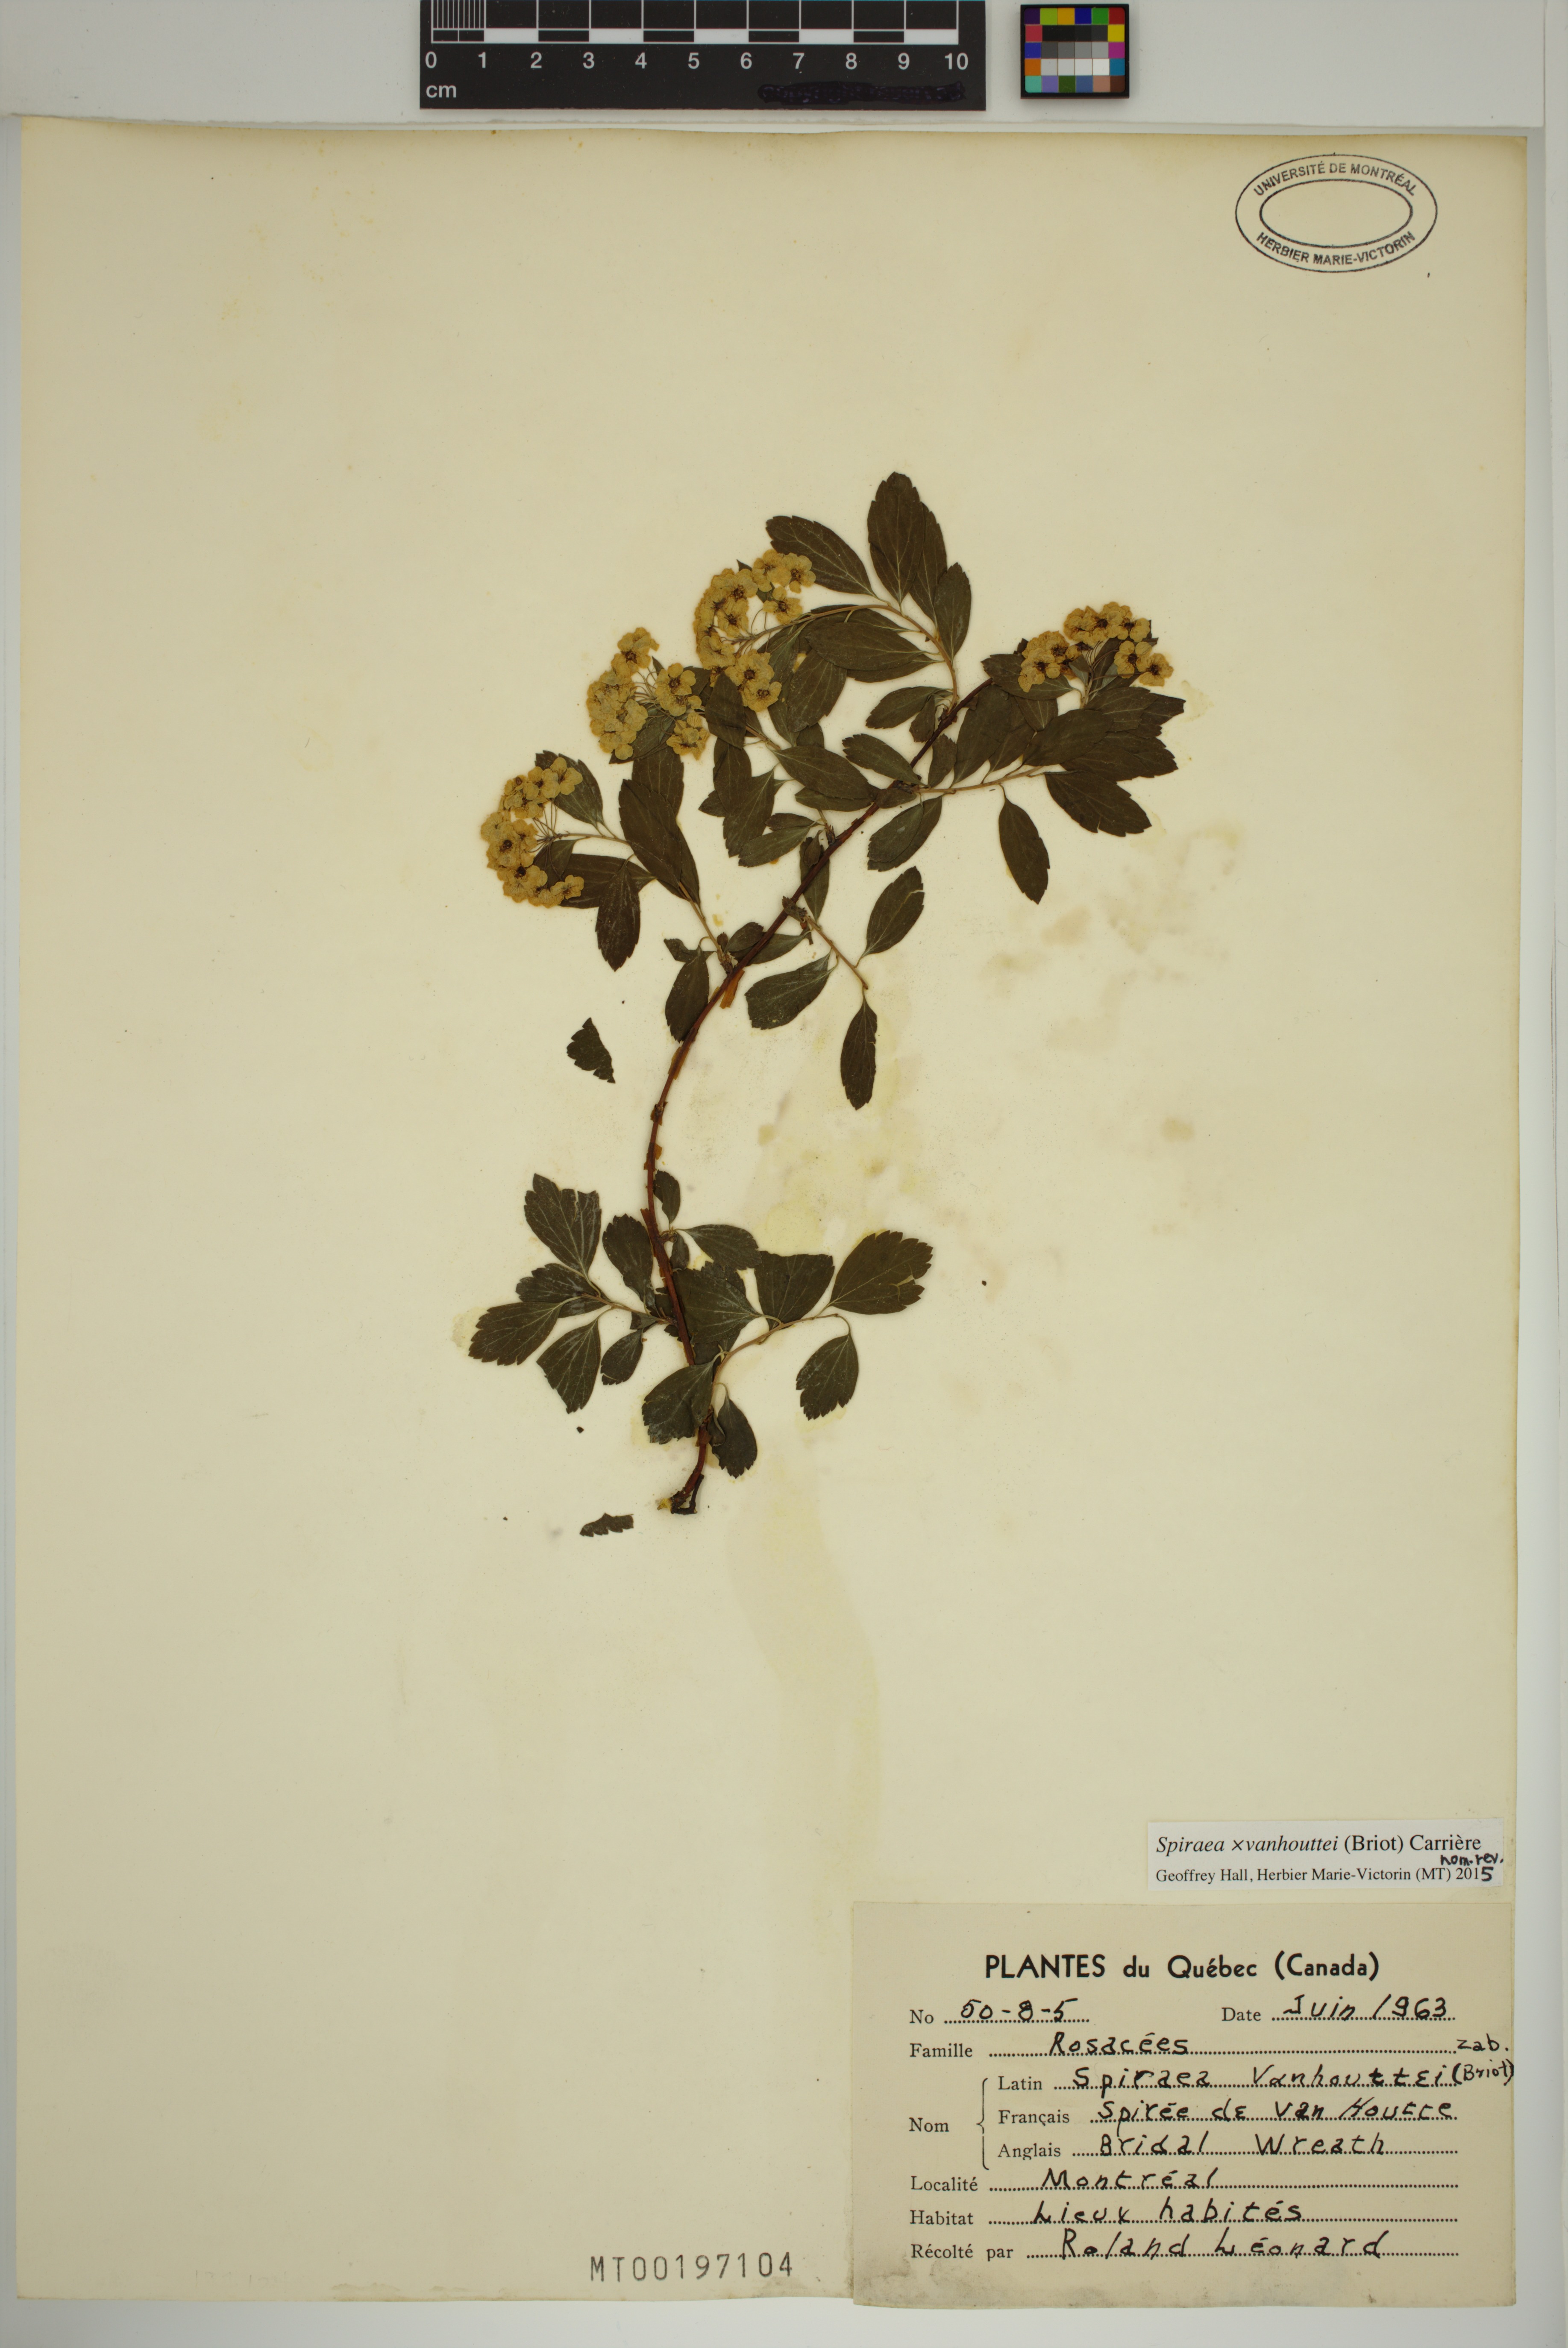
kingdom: Plantae
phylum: Tracheophyta
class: Magnoliopsida
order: Rosales
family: Rosaceae
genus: Spiraea
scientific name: Spiraea vanhouttei
